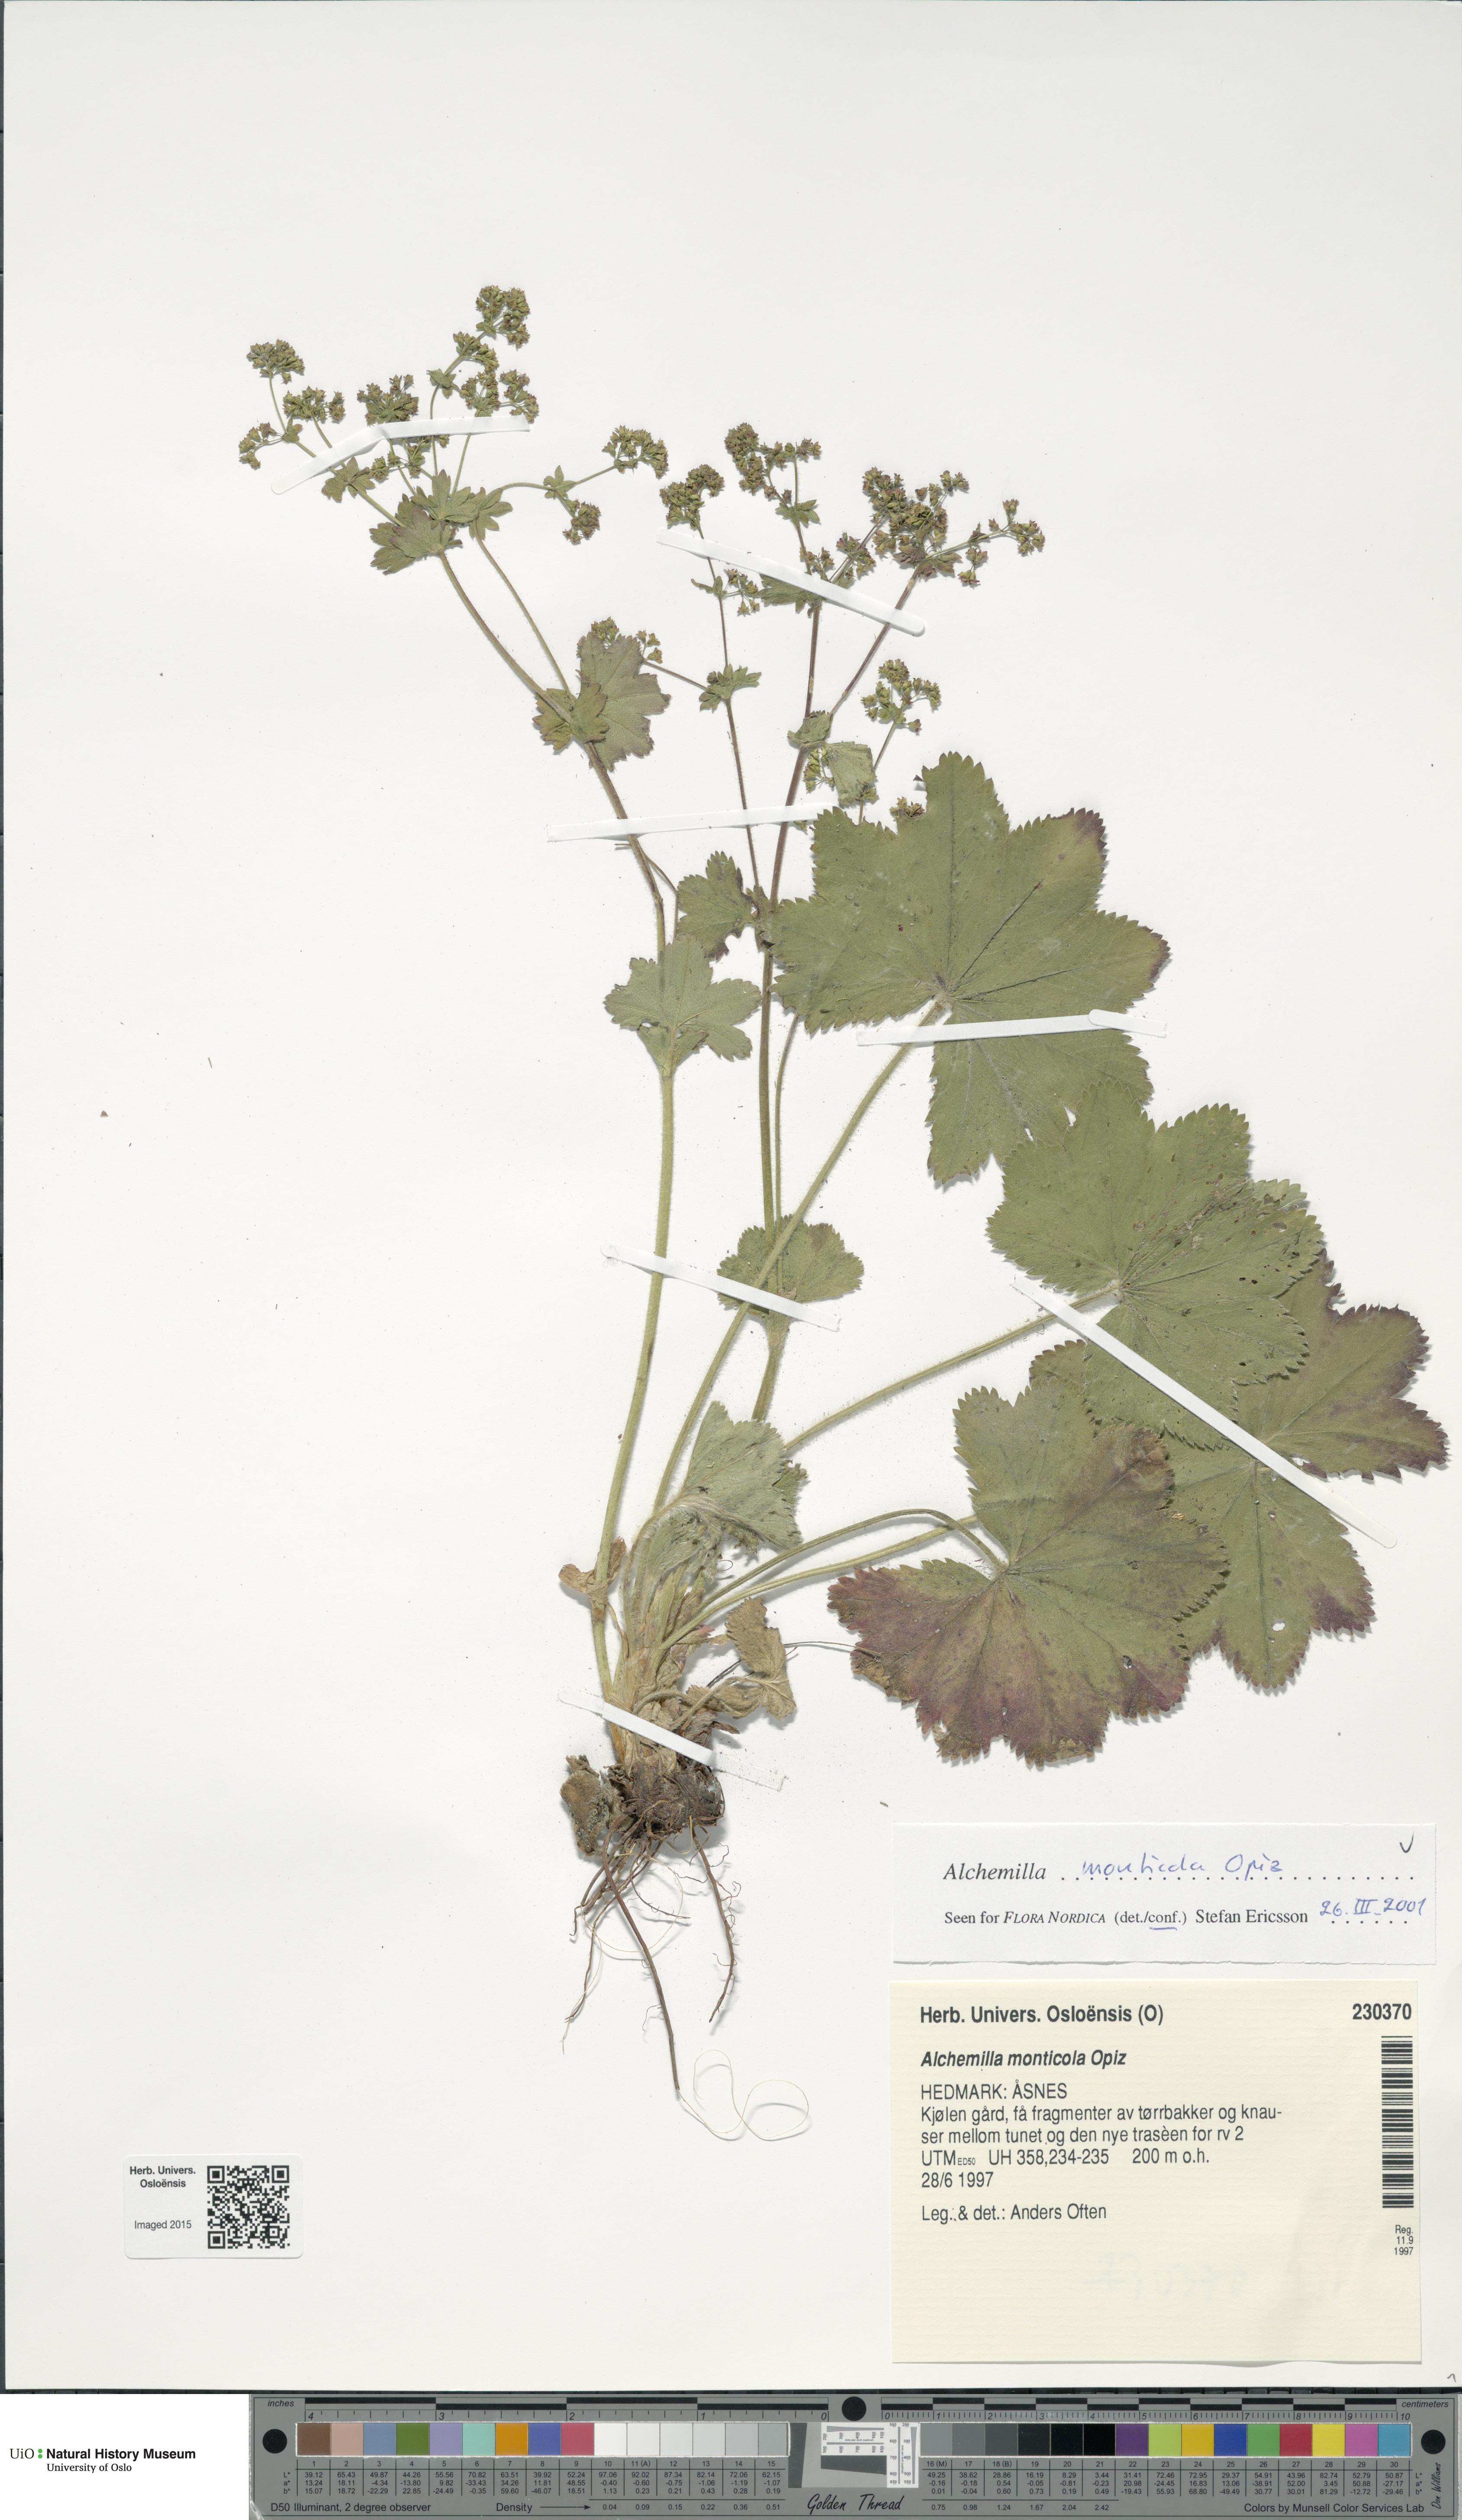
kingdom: Plantae
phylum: Tracheophyta
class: Magnoliopsida
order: Rosales
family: Rosaceae
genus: Alchemilla
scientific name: Alchemilla monticola
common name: Hairy lady's mantle
